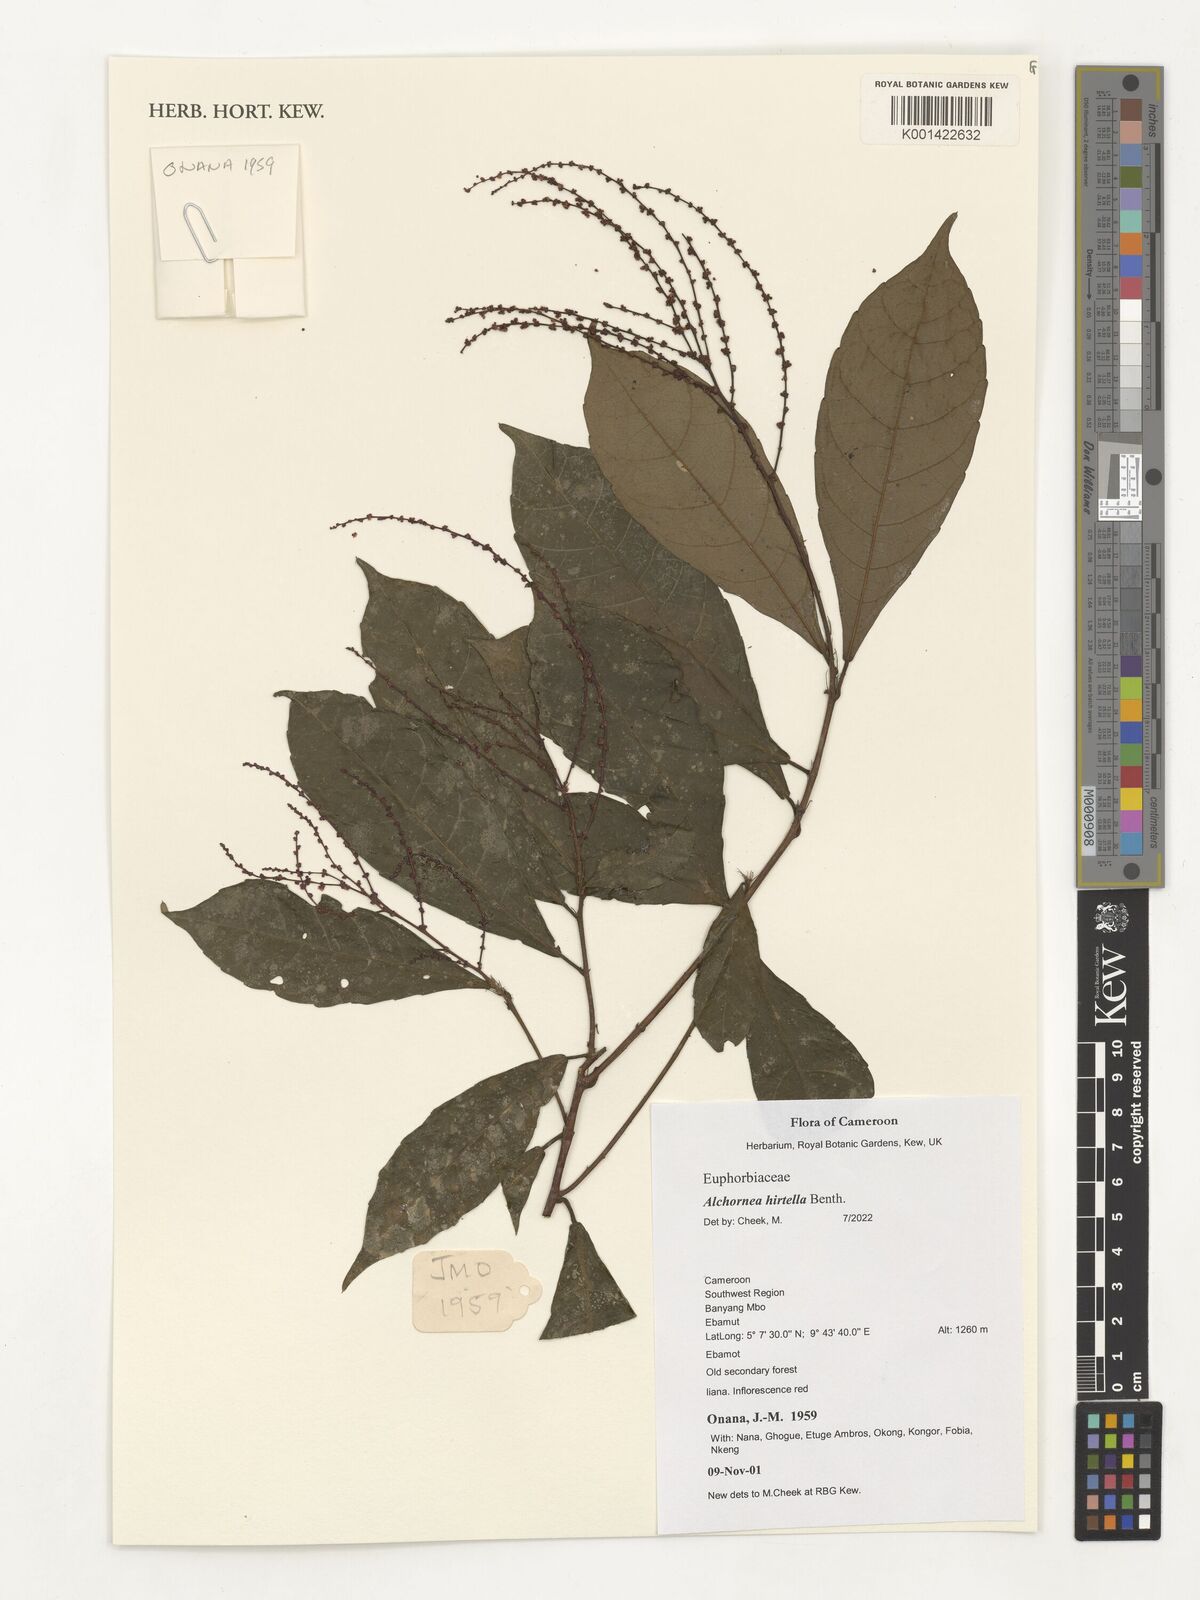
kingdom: Plantae
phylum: Tracheophyta
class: Magnoliopsida
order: Malpighiales
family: Euphorbiaceae
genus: Alchornea
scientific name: Alchornea hirtella
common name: Forest bead-string
